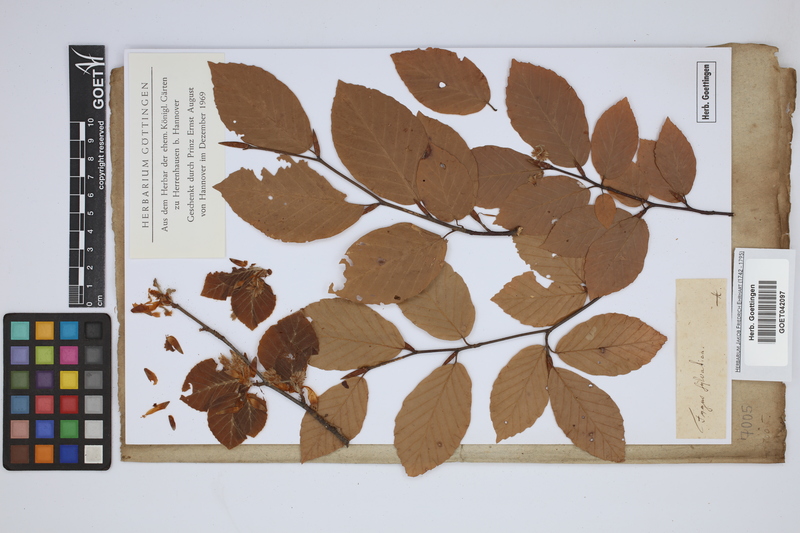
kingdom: Plantae
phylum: Tracheophyta
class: Magnoliopsida
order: Fagales
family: Fagaceae
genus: Fagus
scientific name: Fagus sylvatica
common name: Beech
